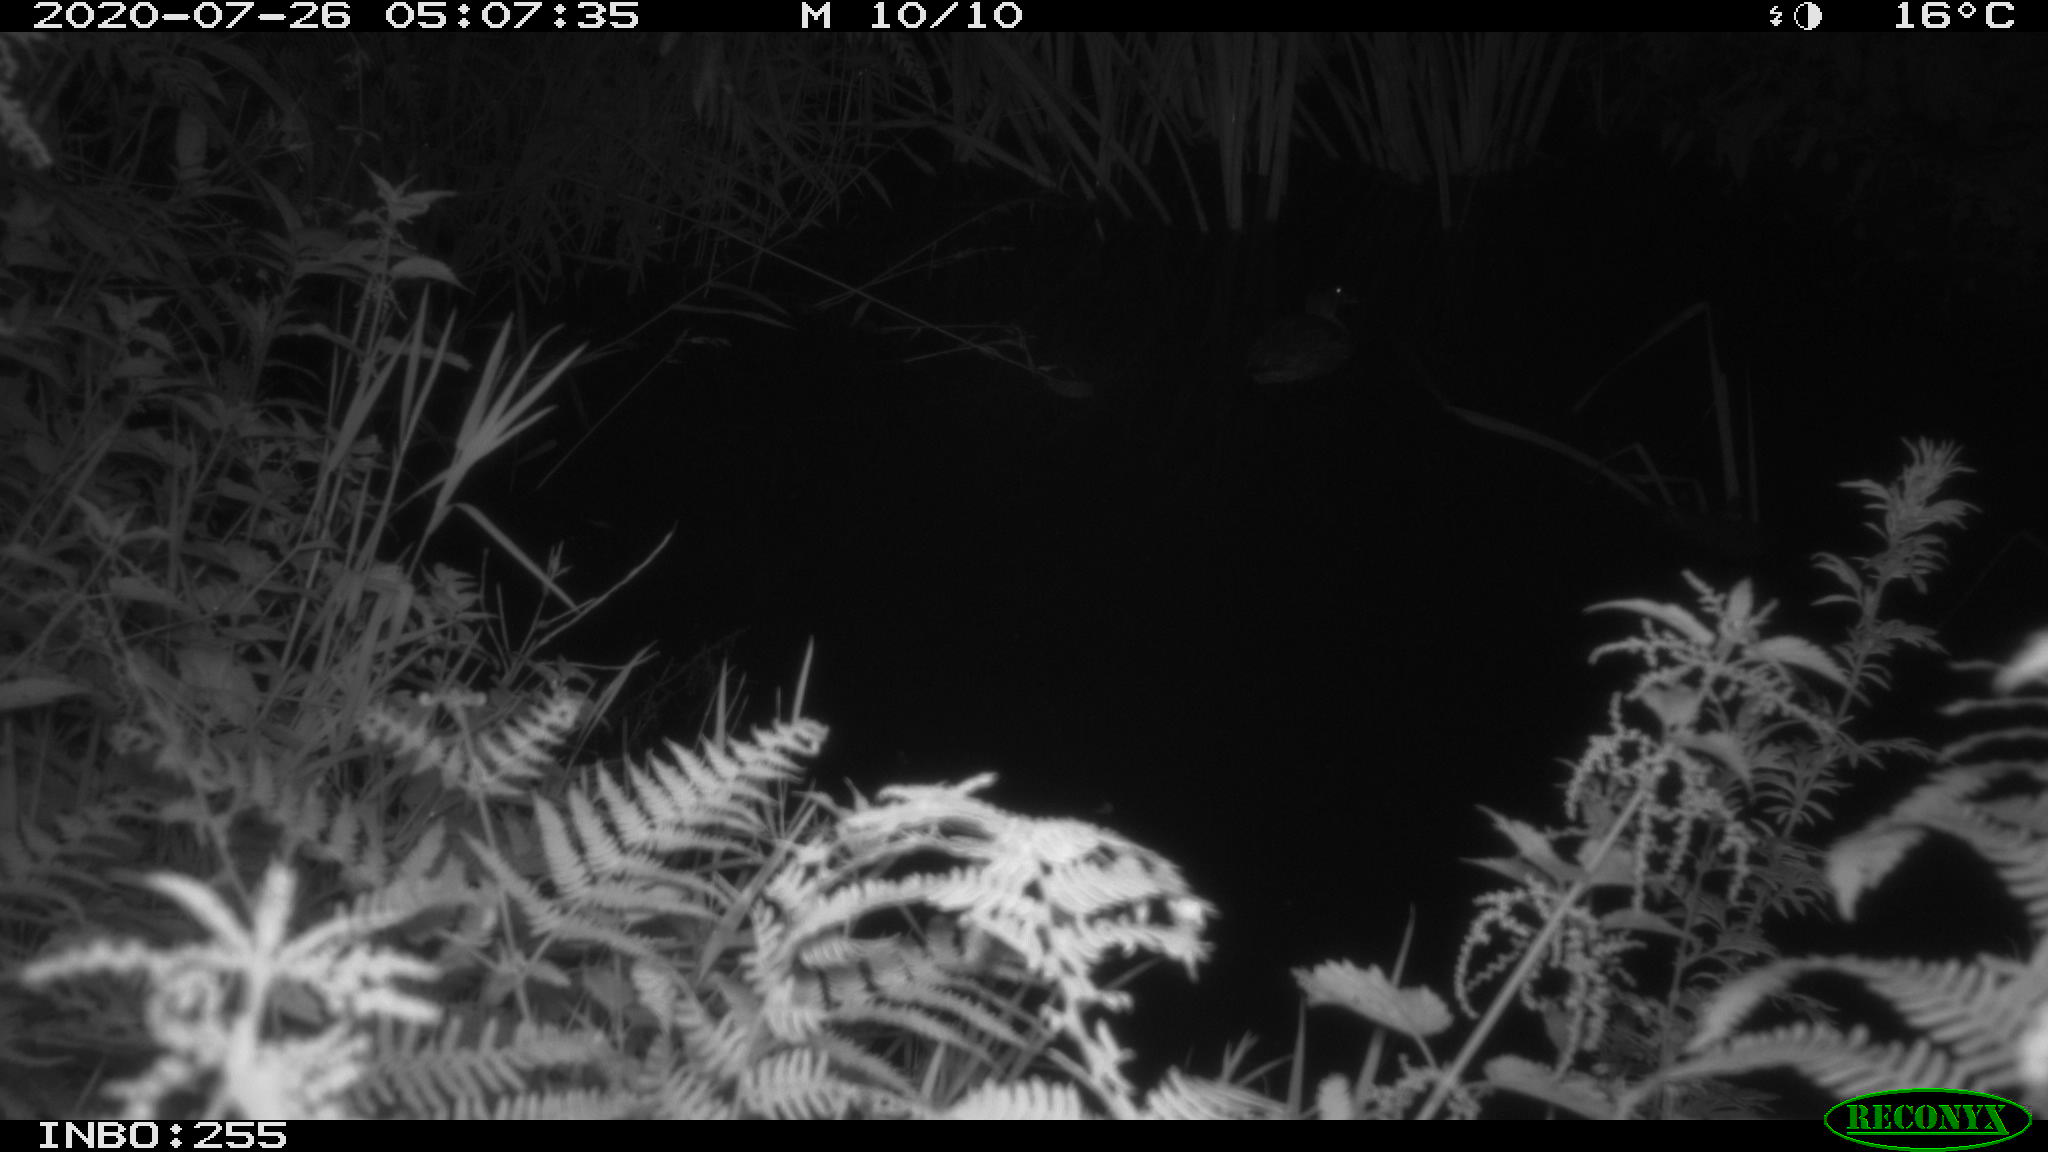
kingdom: Animalia
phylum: Chordata
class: Aves
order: Anseriformes
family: Anatidae
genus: Anas
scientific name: Anas platyrhynchos
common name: Mallard
